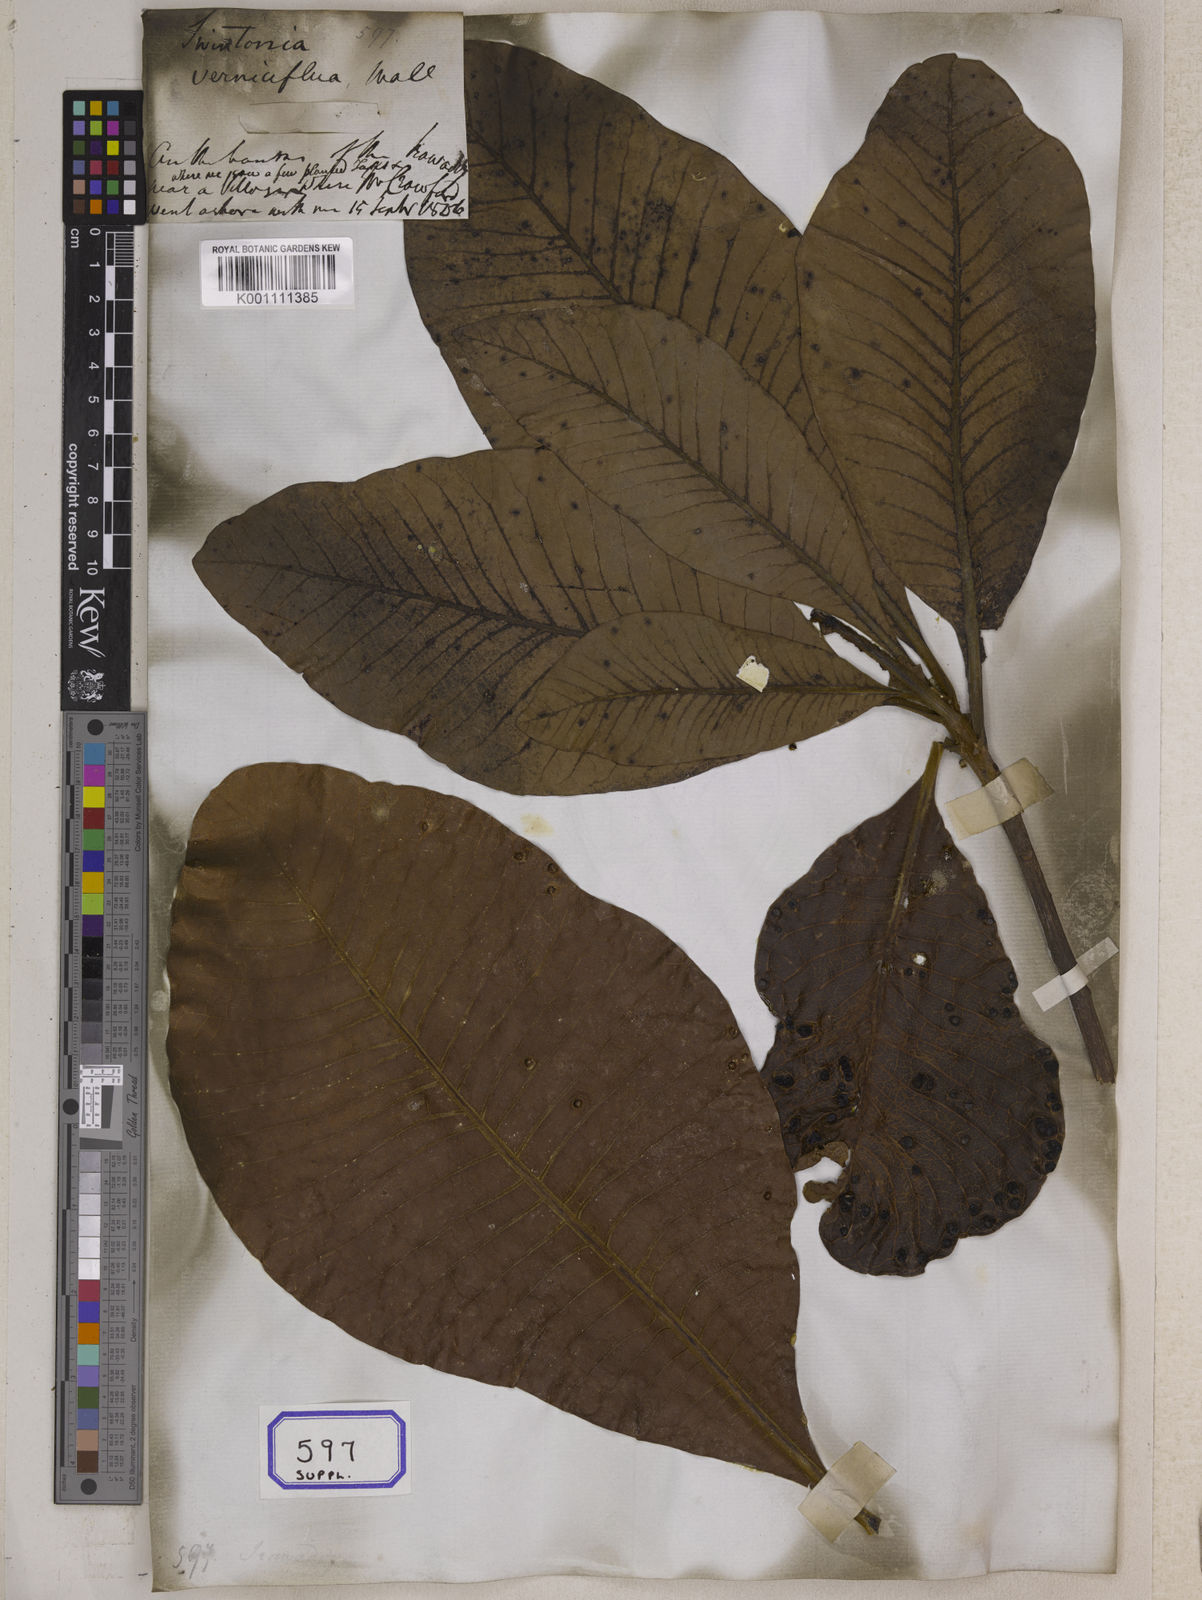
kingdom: Plantae
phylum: Tracheophyta
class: Magnoliopsida
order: Sapindales
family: Anacardiaceae
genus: Gluta
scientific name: Gluta
